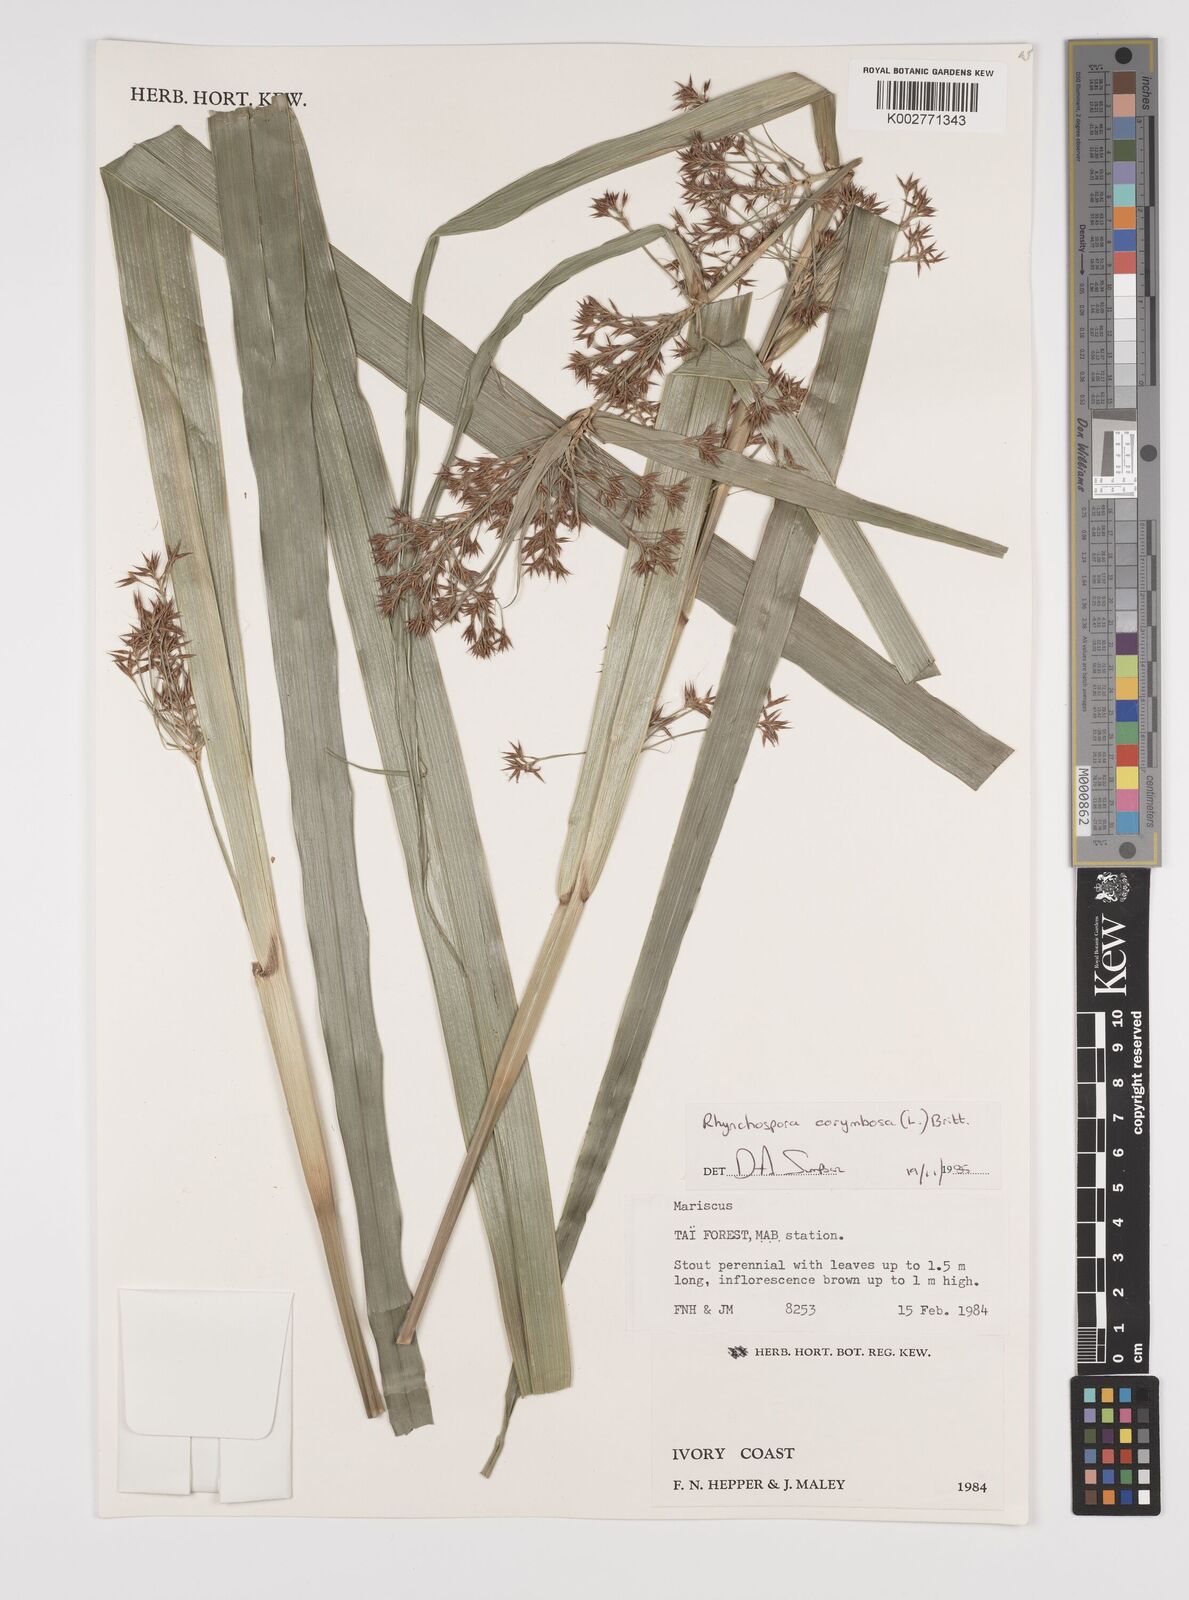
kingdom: Plantae
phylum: Tracheophyta
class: Liliopsida
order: Poales
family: Cyperaceae
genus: Rhynchospora
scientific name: Rhynchospora corymbosa
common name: Golden beak sedge
